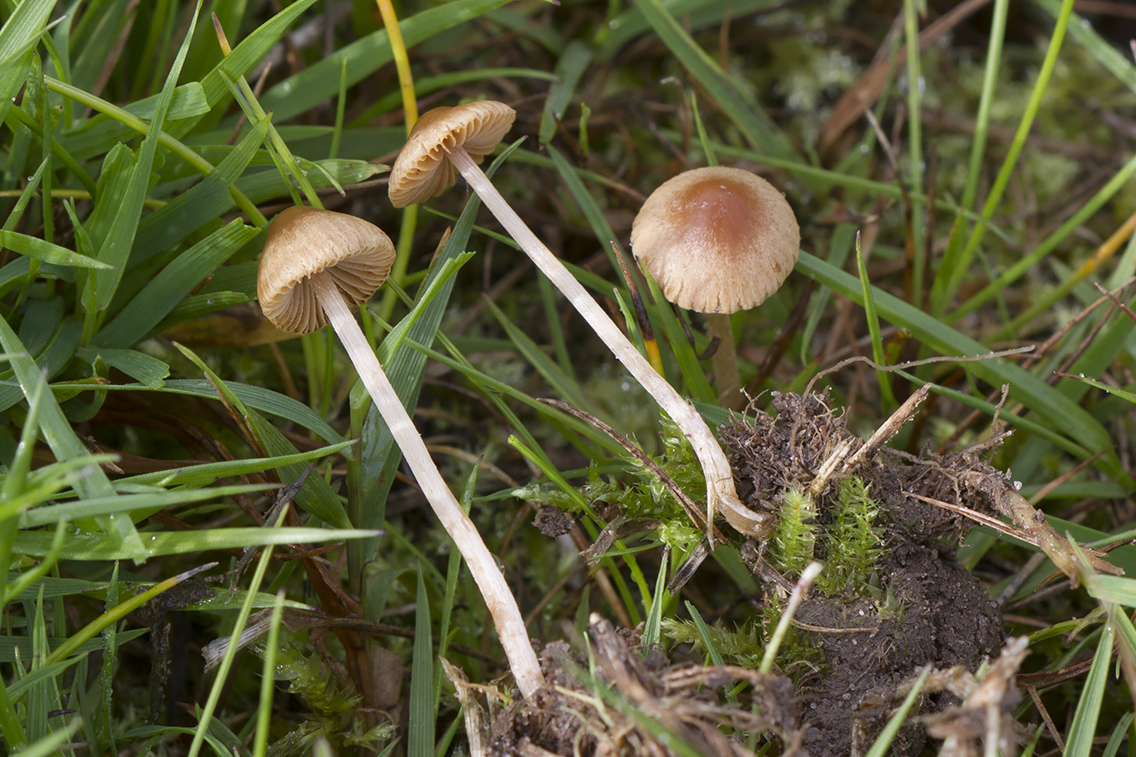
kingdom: Fungi
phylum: Basidiomycota
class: Agaricomycetes
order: Agaricales
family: Bolbitiaceae
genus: Pholiotina
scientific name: Pholiotina sulcata
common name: plisseret dansehat
